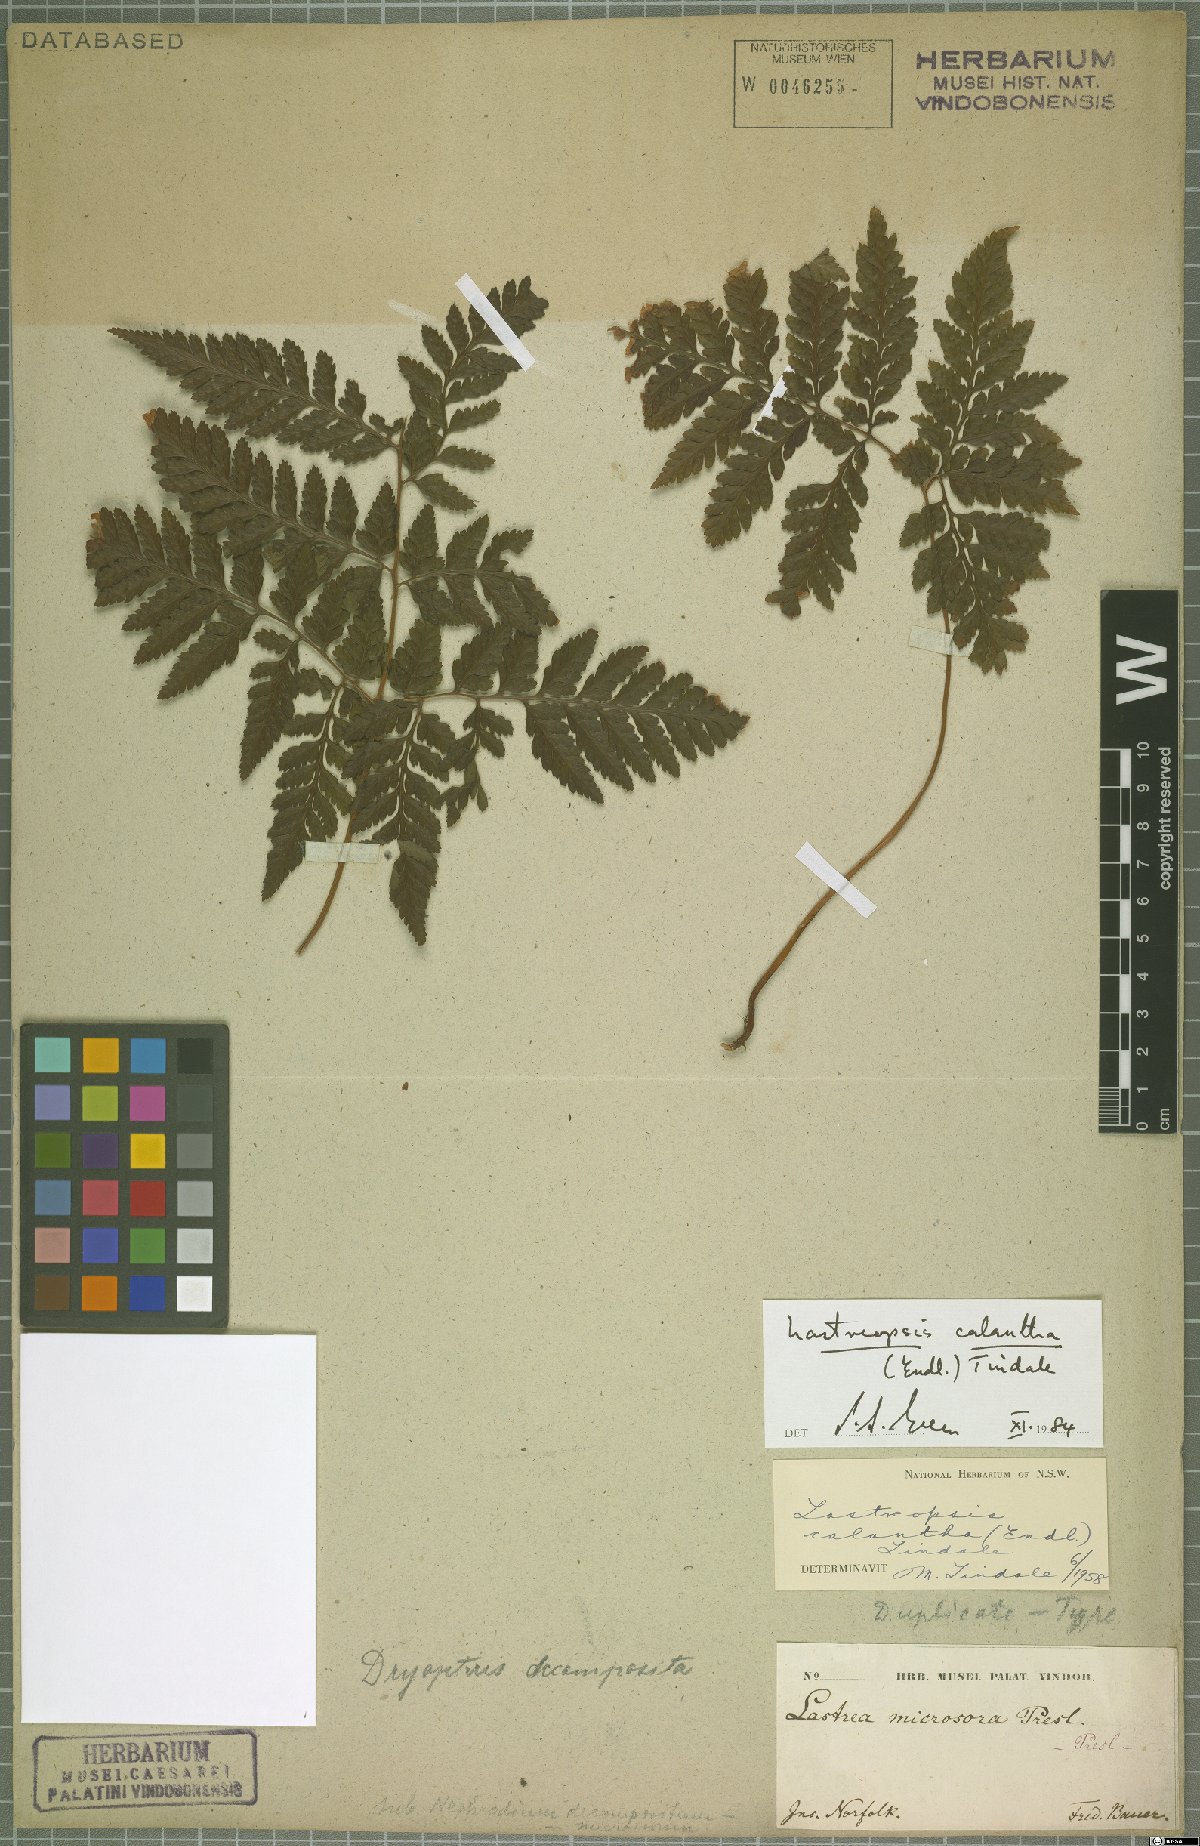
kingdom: Plantae
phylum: Tracheophyta
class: Polypodiopsida
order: Polypodiales
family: Dryopteridaceae
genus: Parapolystichum
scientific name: Parapolystichum calanthum
